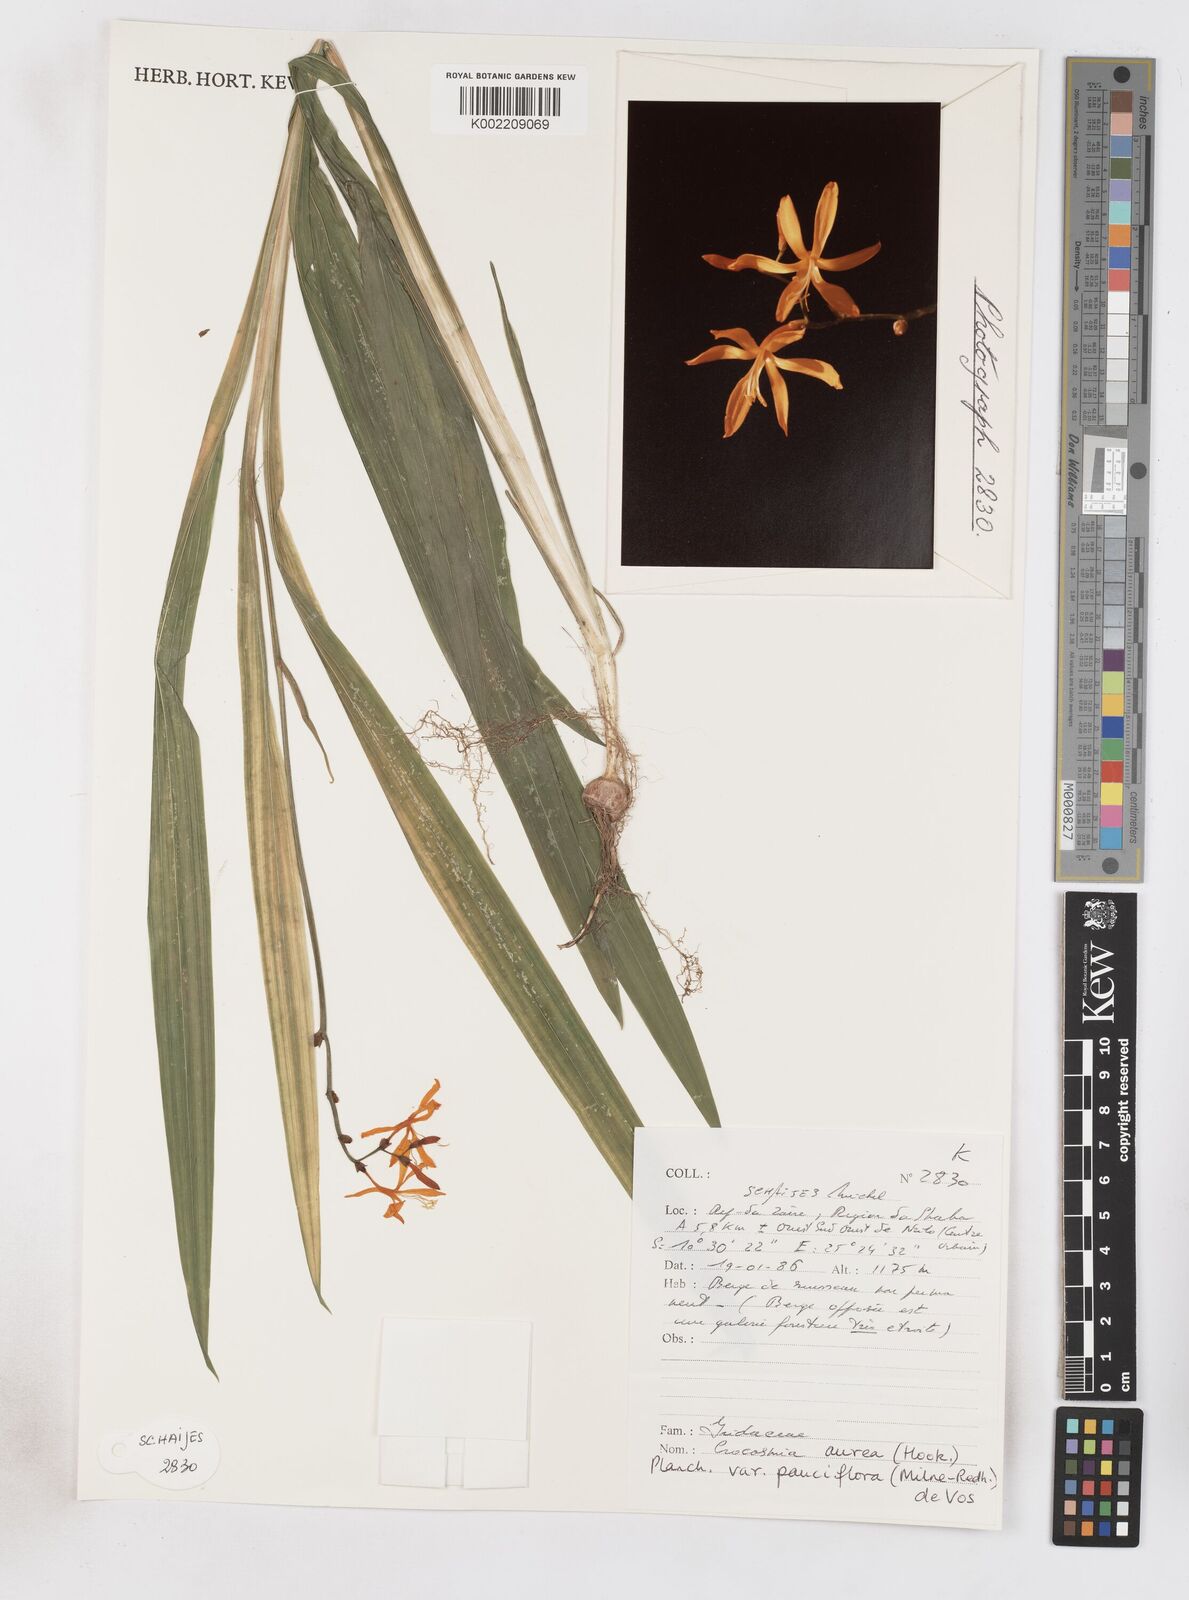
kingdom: Plantae
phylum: Tracheophyta
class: Liliopsida
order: Asparagales
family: Iridaceae
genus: Crocosmia
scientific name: Crocosmia aurea
